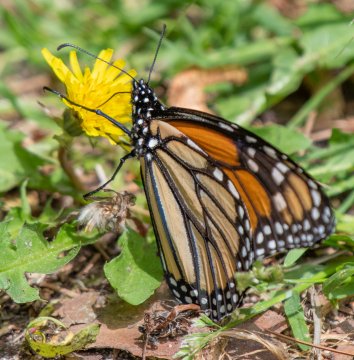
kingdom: Animalia
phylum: Arthropoda
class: Insecta
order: Lepidoptera
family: Nymphalidae
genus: Danaus
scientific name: Danaus plexippus
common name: Monarch
